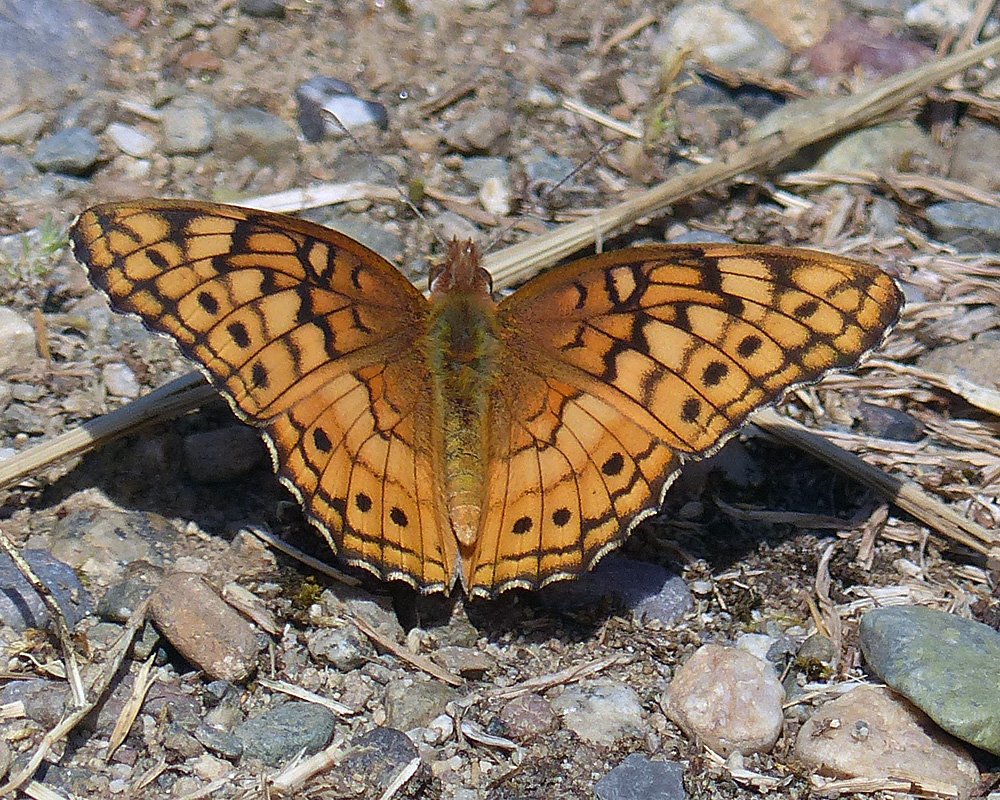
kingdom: Animalia
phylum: Arthropoda
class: Insecta
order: Lepidoptera
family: Nymphalidae
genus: Euptoieta
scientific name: Euptoieta claudia
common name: Variegated Fritillary
